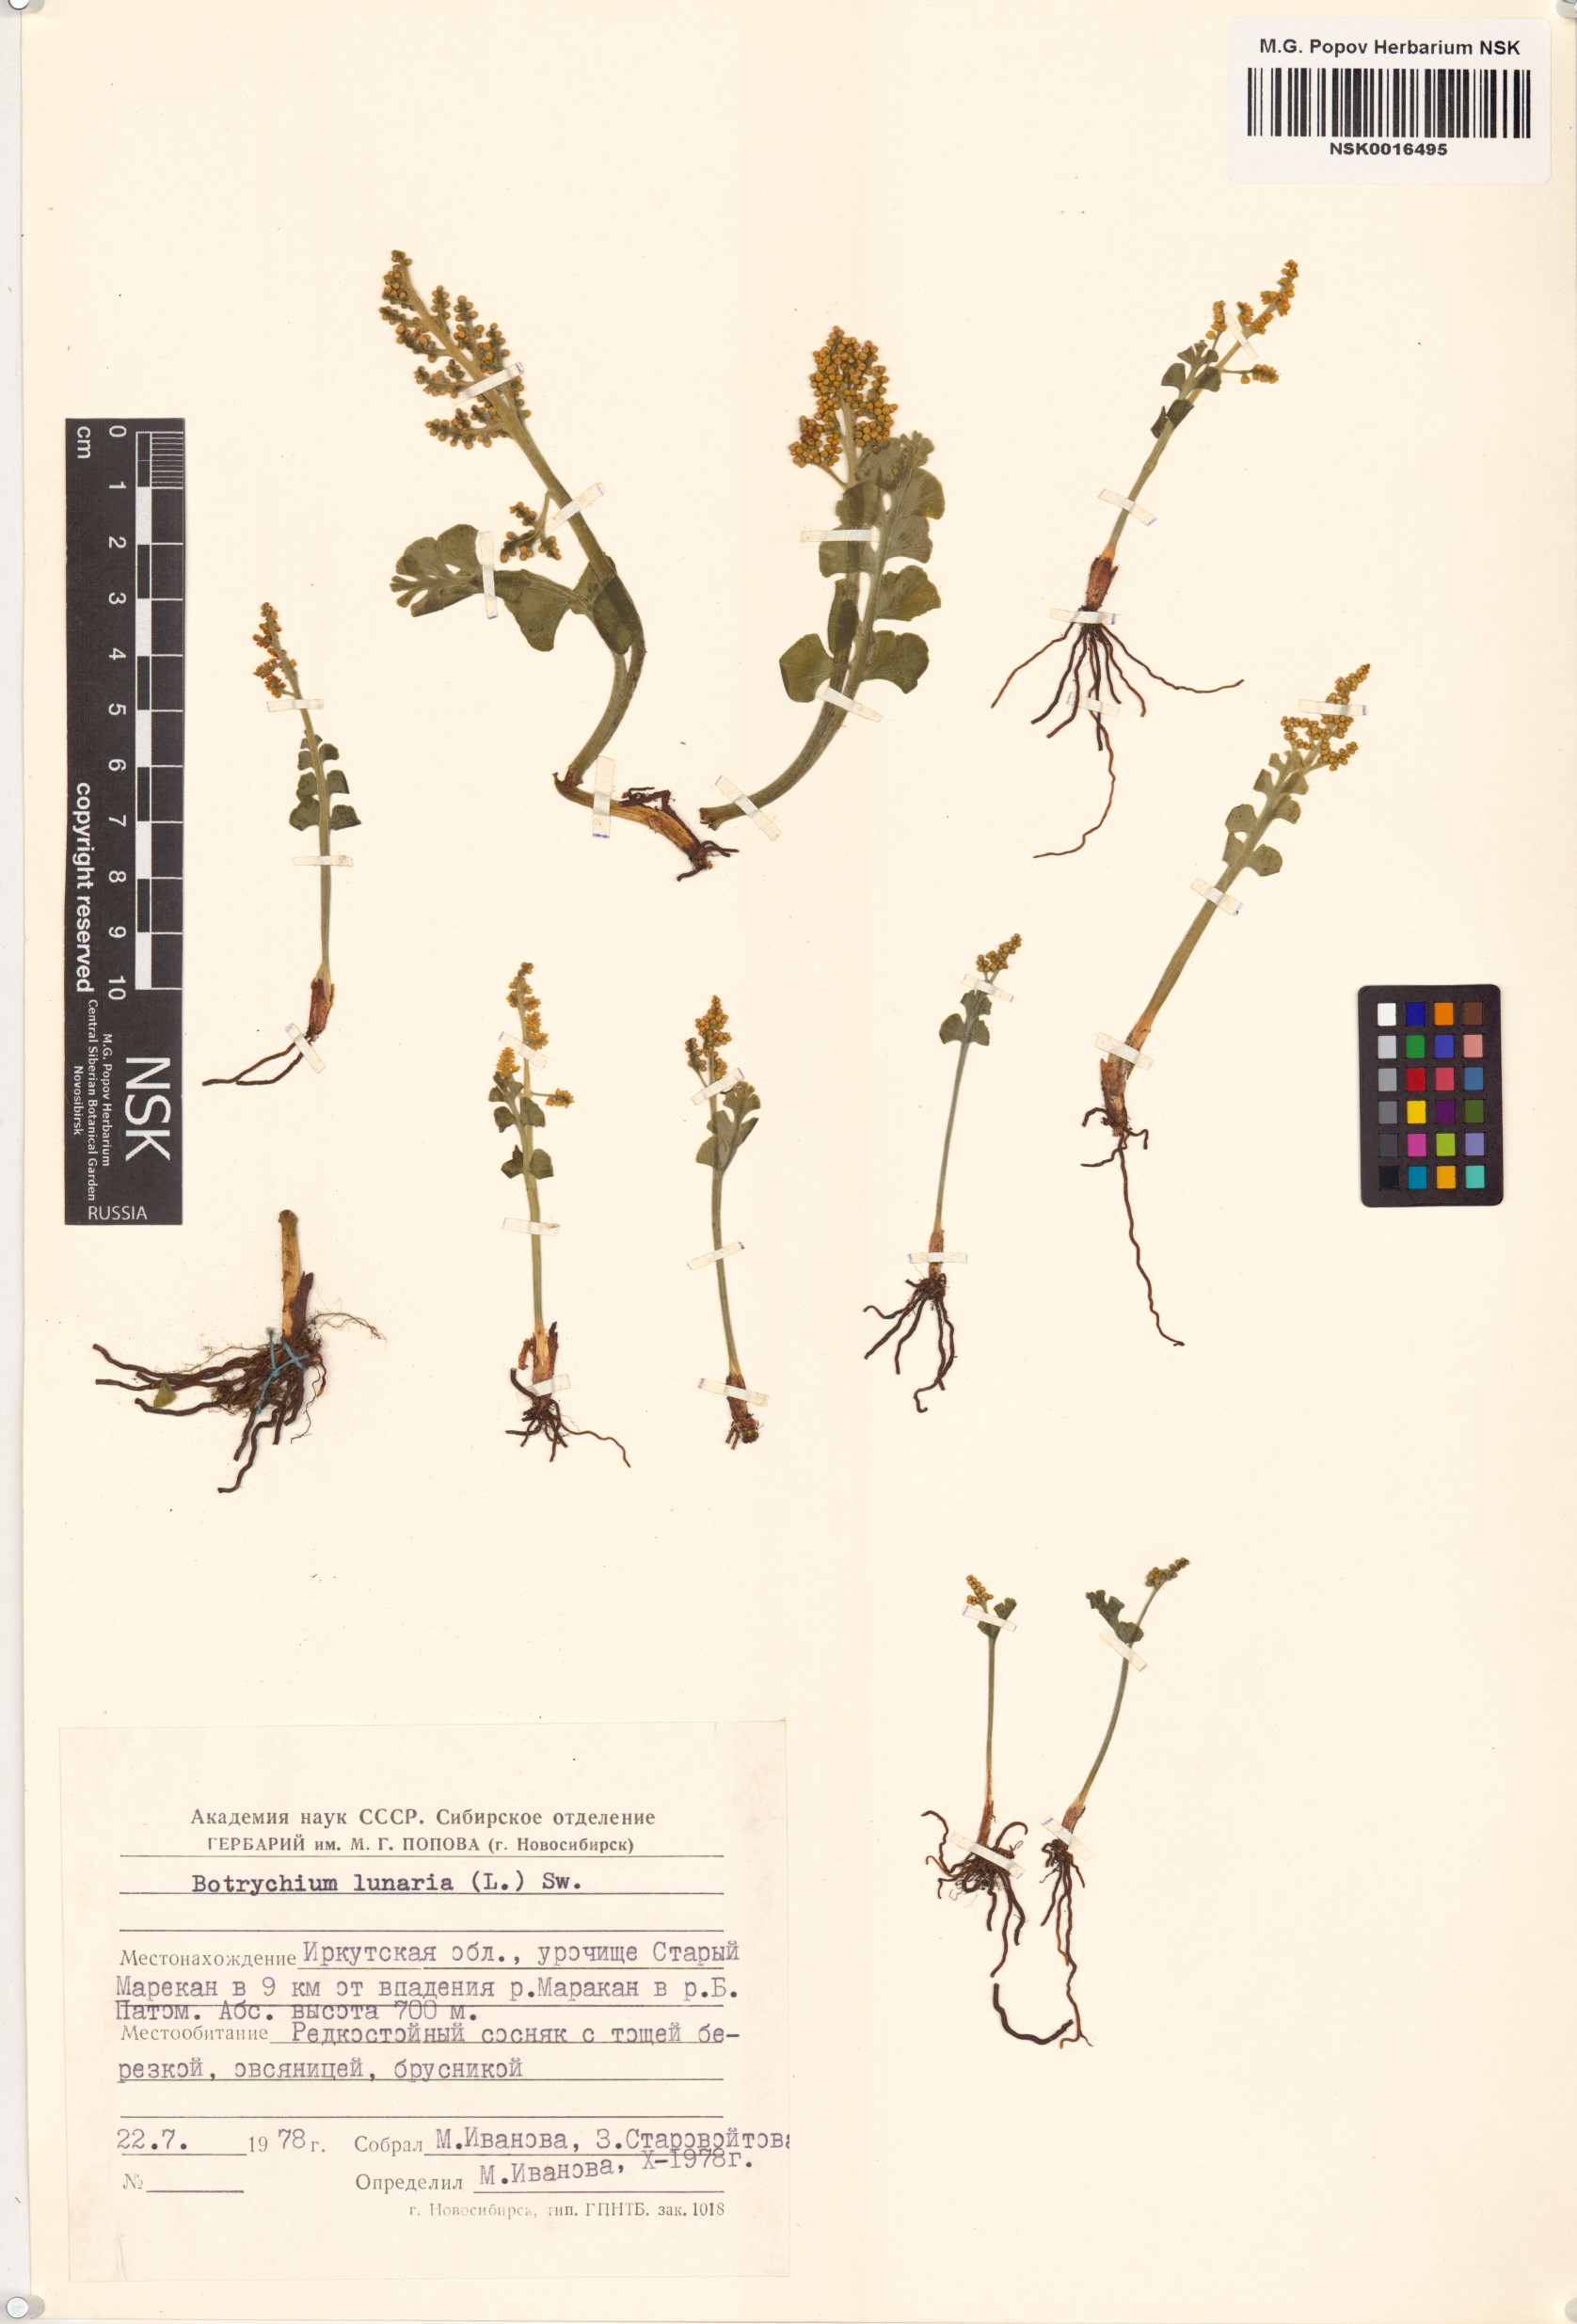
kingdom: Plantae
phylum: Tracheophyta
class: Polypodiopsida
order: Ophioglossales
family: Ophioglossaceae
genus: Botrychium
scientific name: Botrychium lunaria
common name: Moonwort
